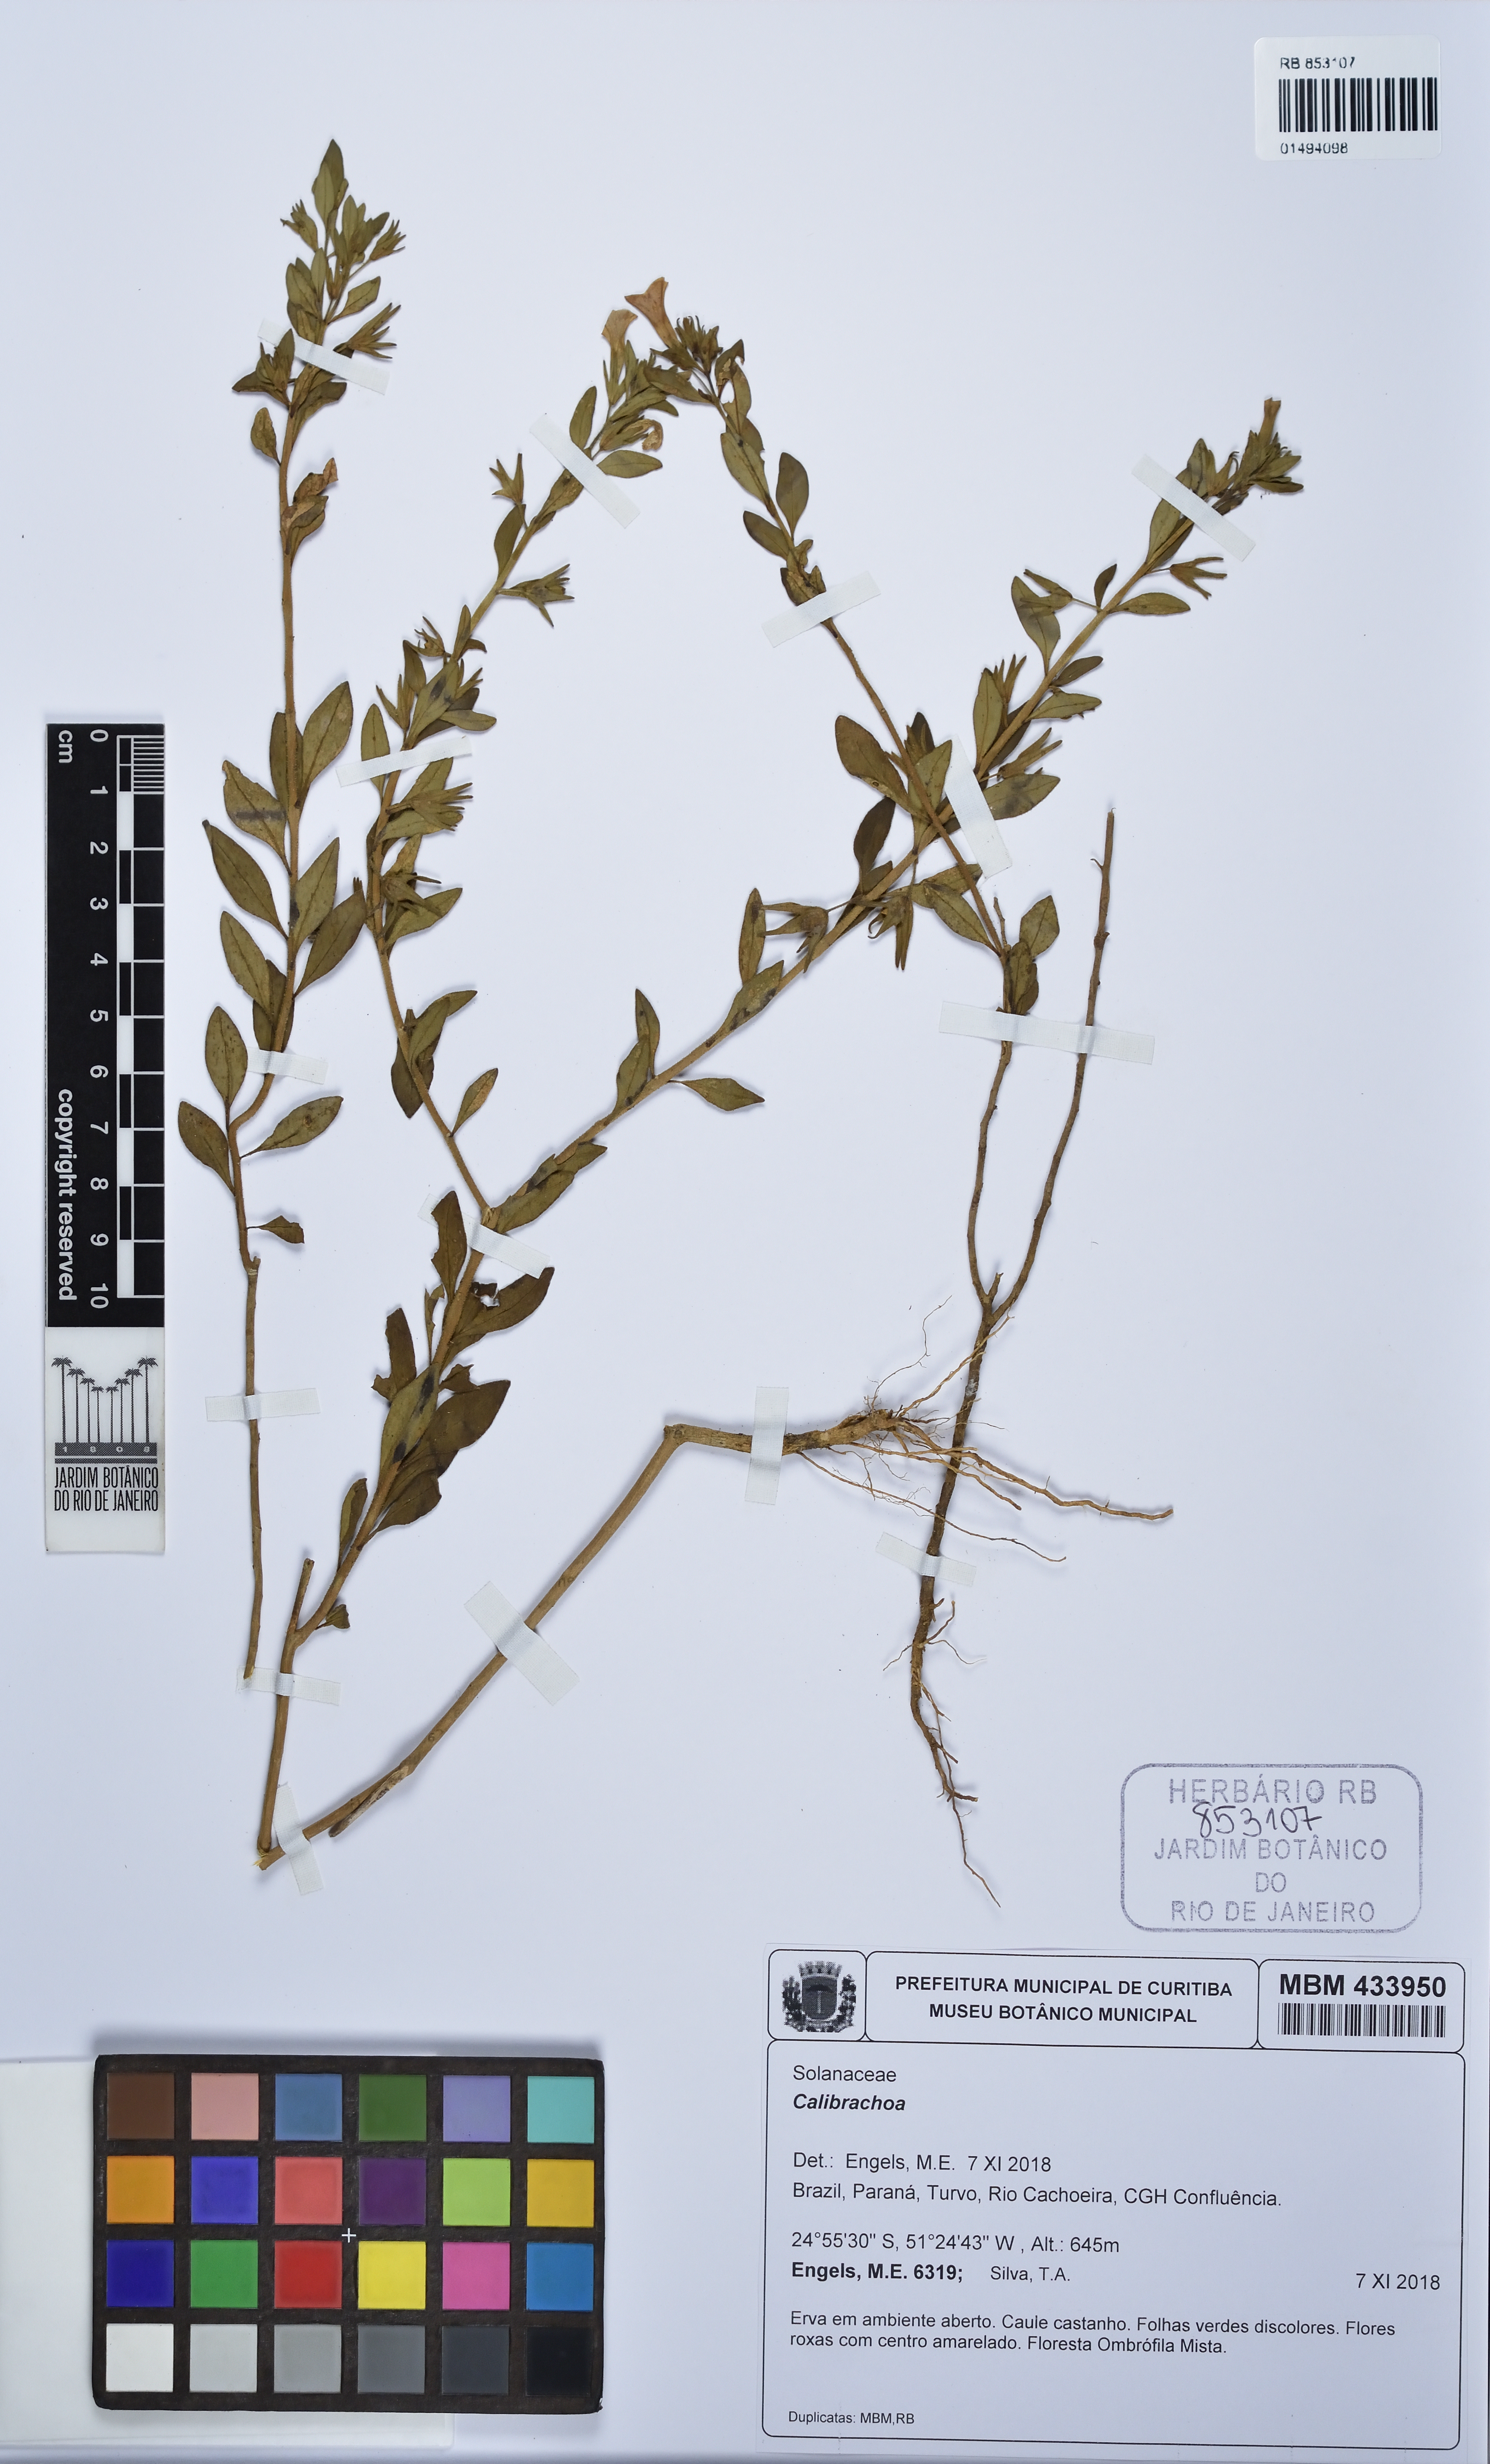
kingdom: Plantae
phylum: Tracheophyta
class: Magnoliopsida
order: Solanales
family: Solanaceae
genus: Calibrachoa
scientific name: Calibrachoa
